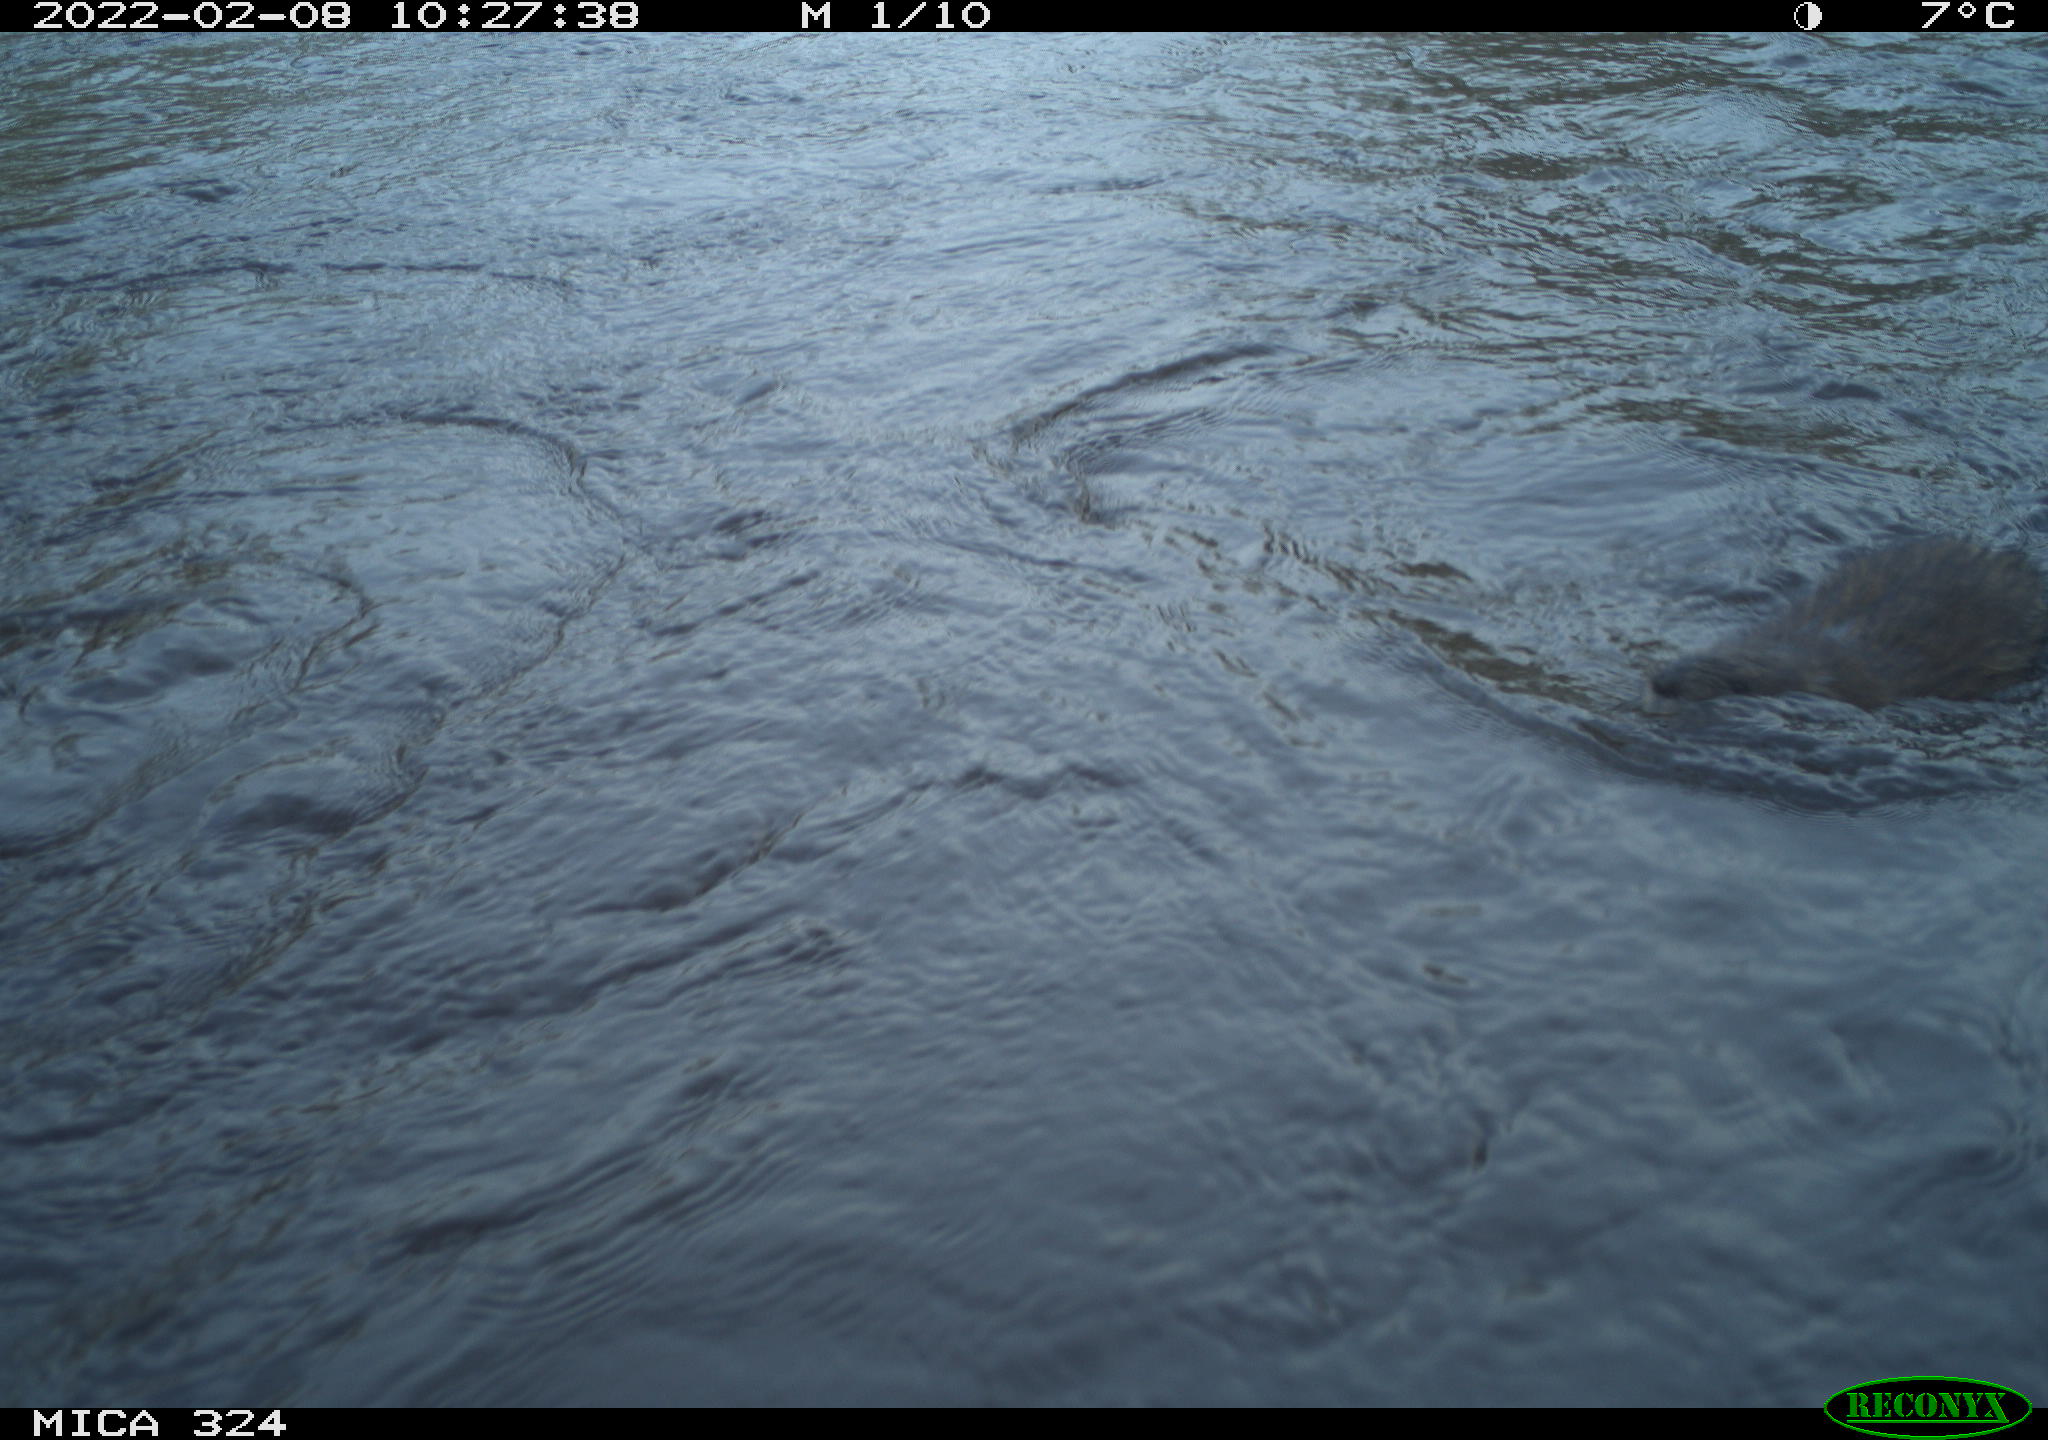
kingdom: Animalia
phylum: Chordata
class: Mammalia
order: Rodentia
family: Cricetidae
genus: Ondatra
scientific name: Ondatra zibethicus
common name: Muskrat
